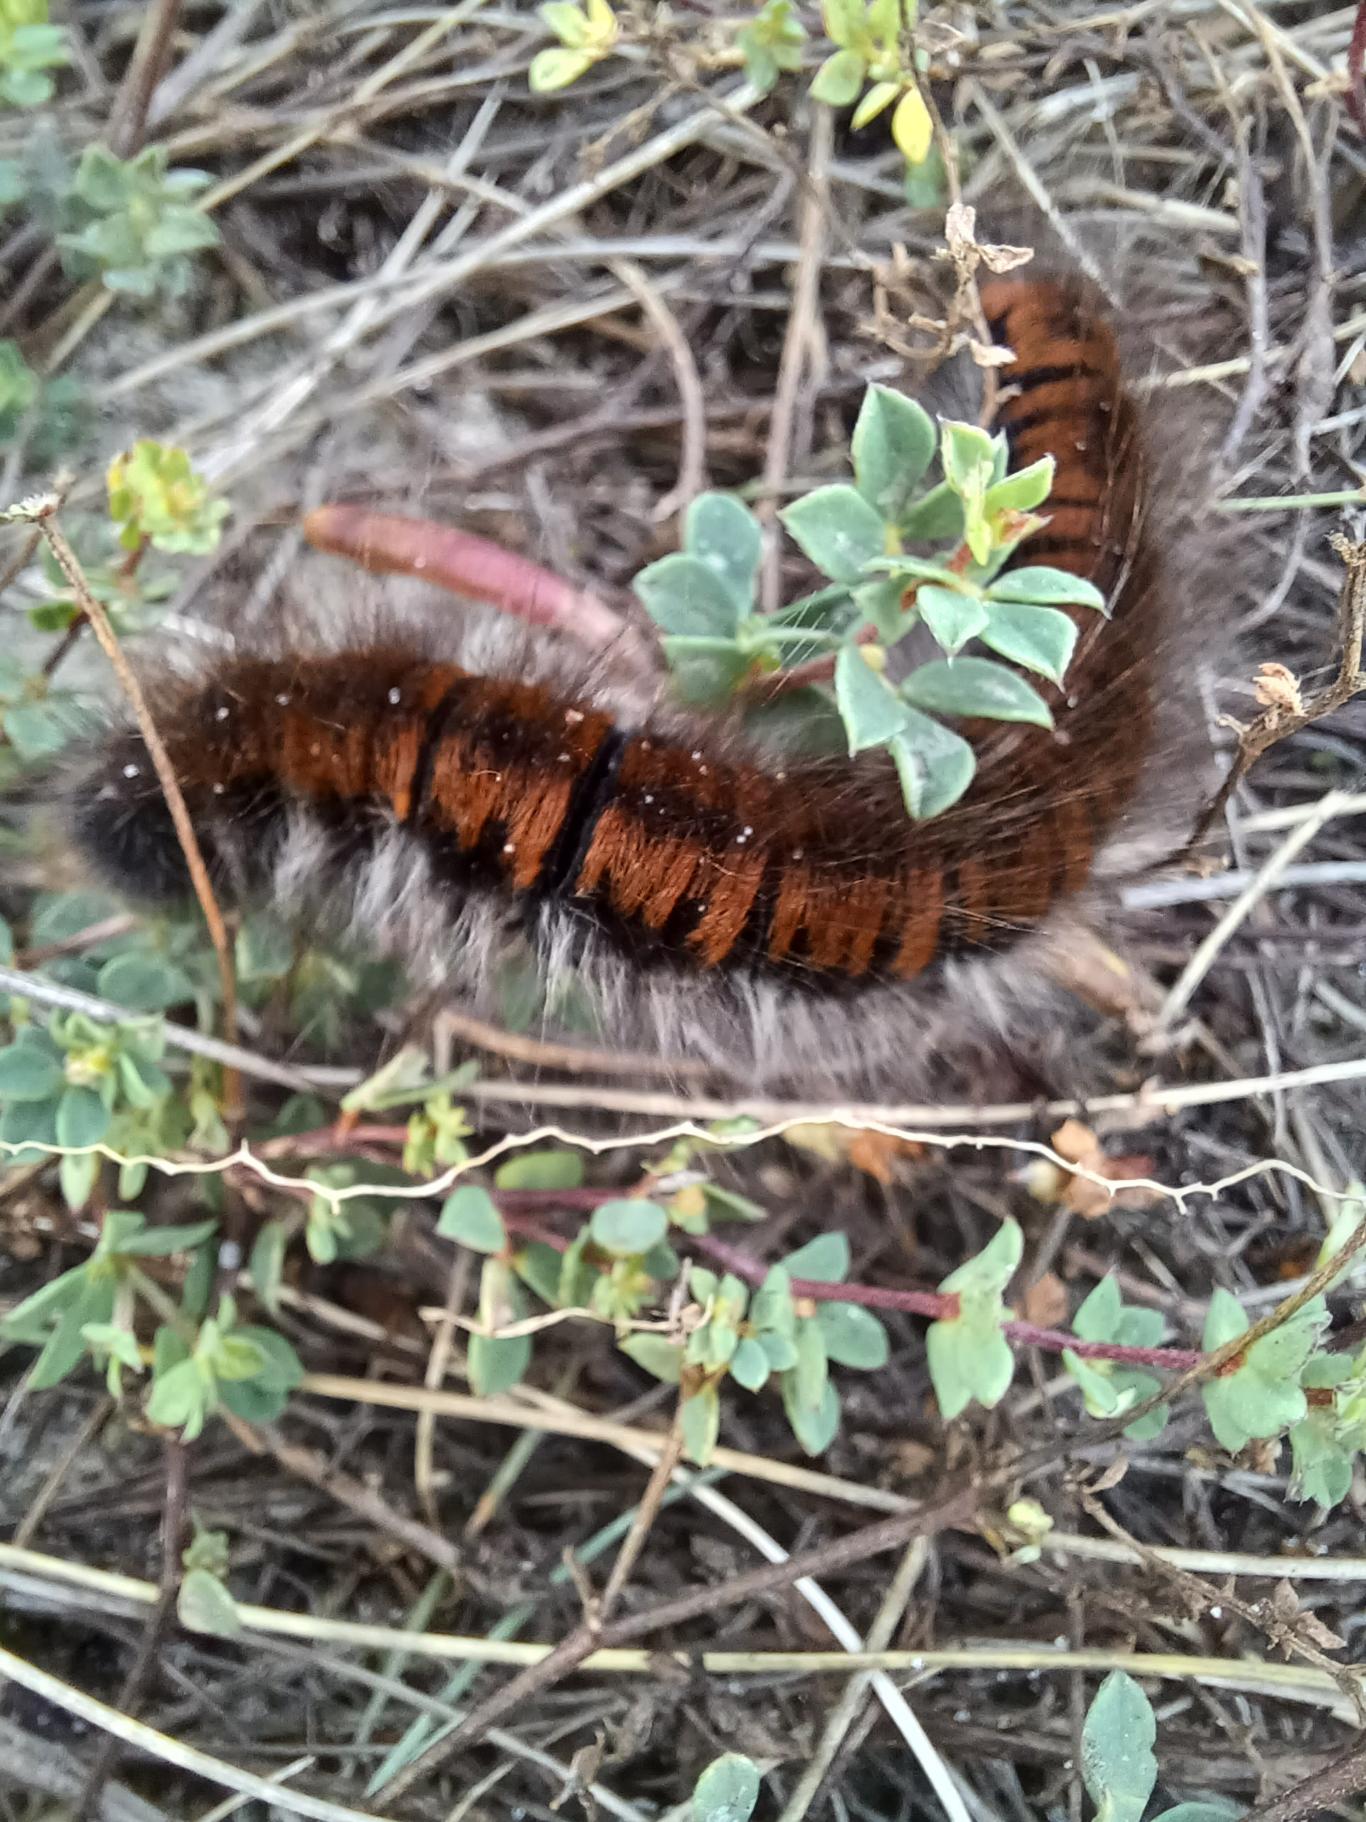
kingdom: Animalia
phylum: Arthropoda
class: Insecta
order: Lepidoptera
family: Lasiocampidae
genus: Macrothylacia
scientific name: Macrothylacia rubi
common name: Brombærspinder
